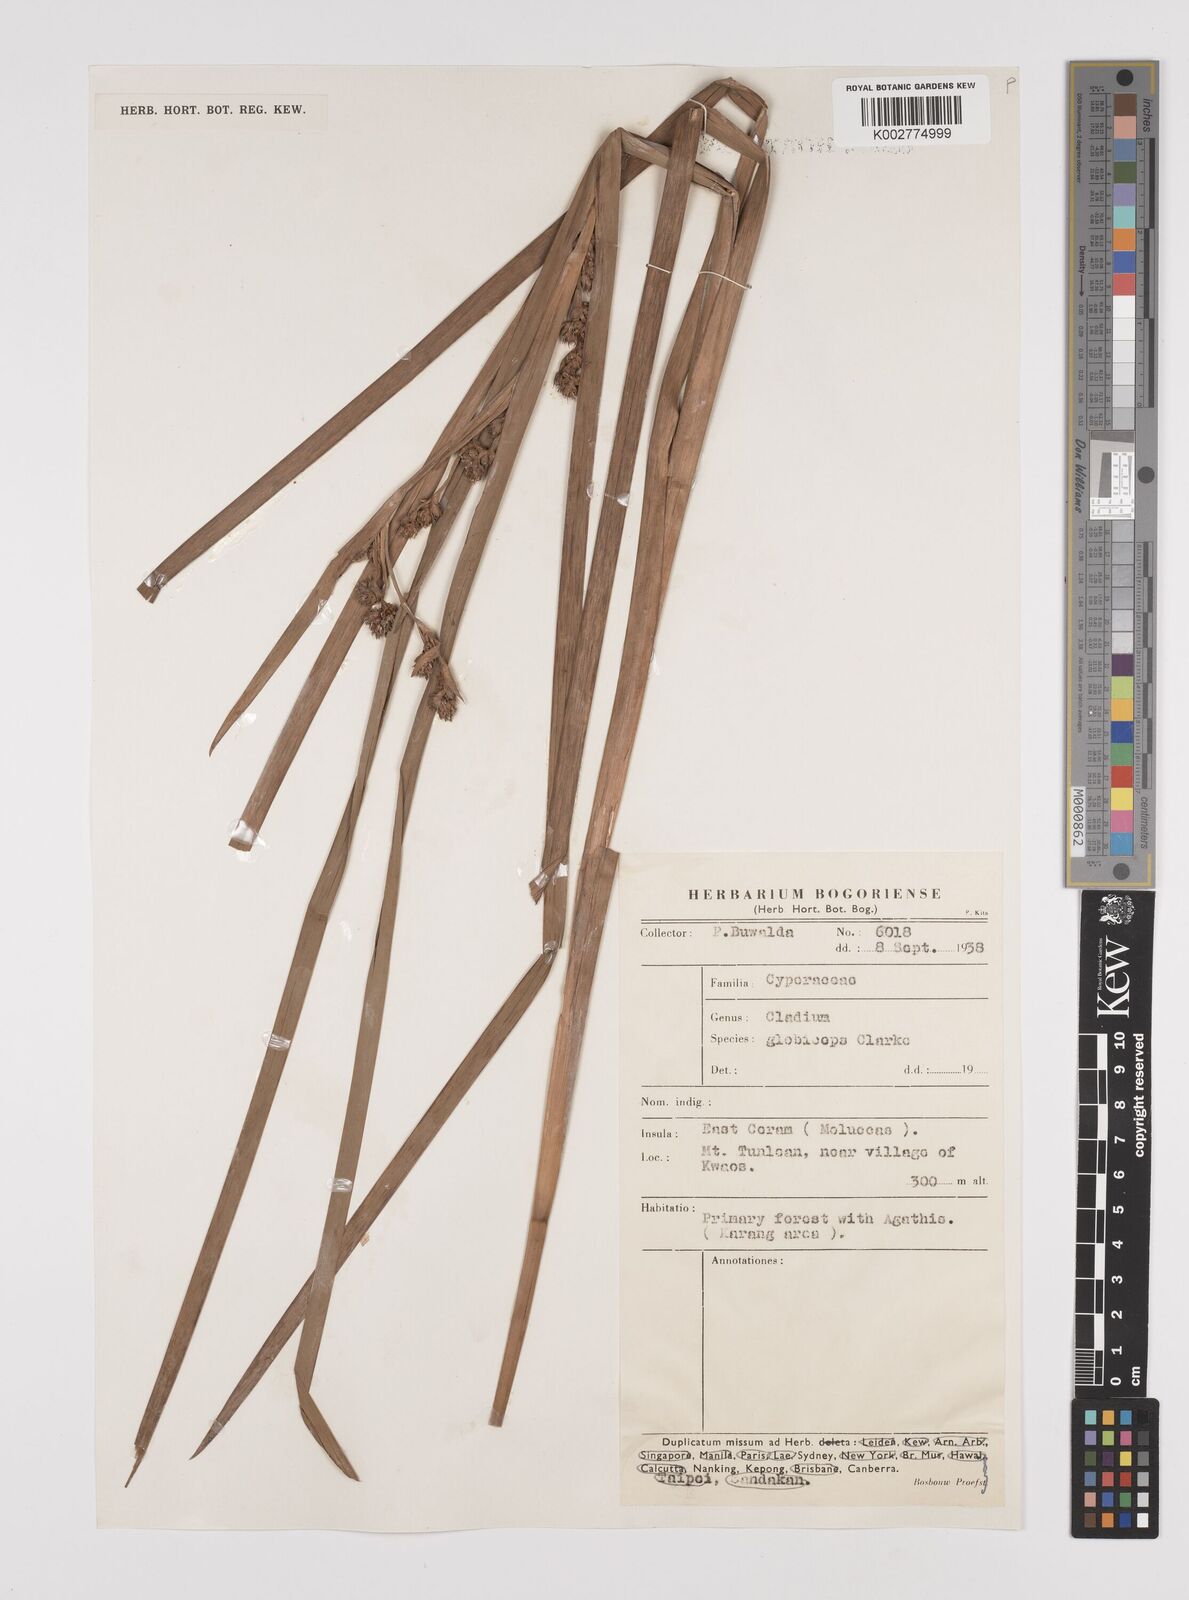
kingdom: Plantae
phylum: Tracheophyta
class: Liliopsida
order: Poales
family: Cyperaceae
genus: Machaerina
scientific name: Machaerina glomerata
